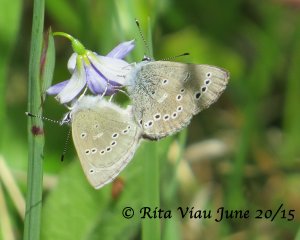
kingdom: Animalia
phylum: Arthropoda
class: Insecta
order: Lepidoptera
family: Lycaenidae
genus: Glaucopsyche
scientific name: Glaucopsyche lygdamus
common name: Silvery Blue
